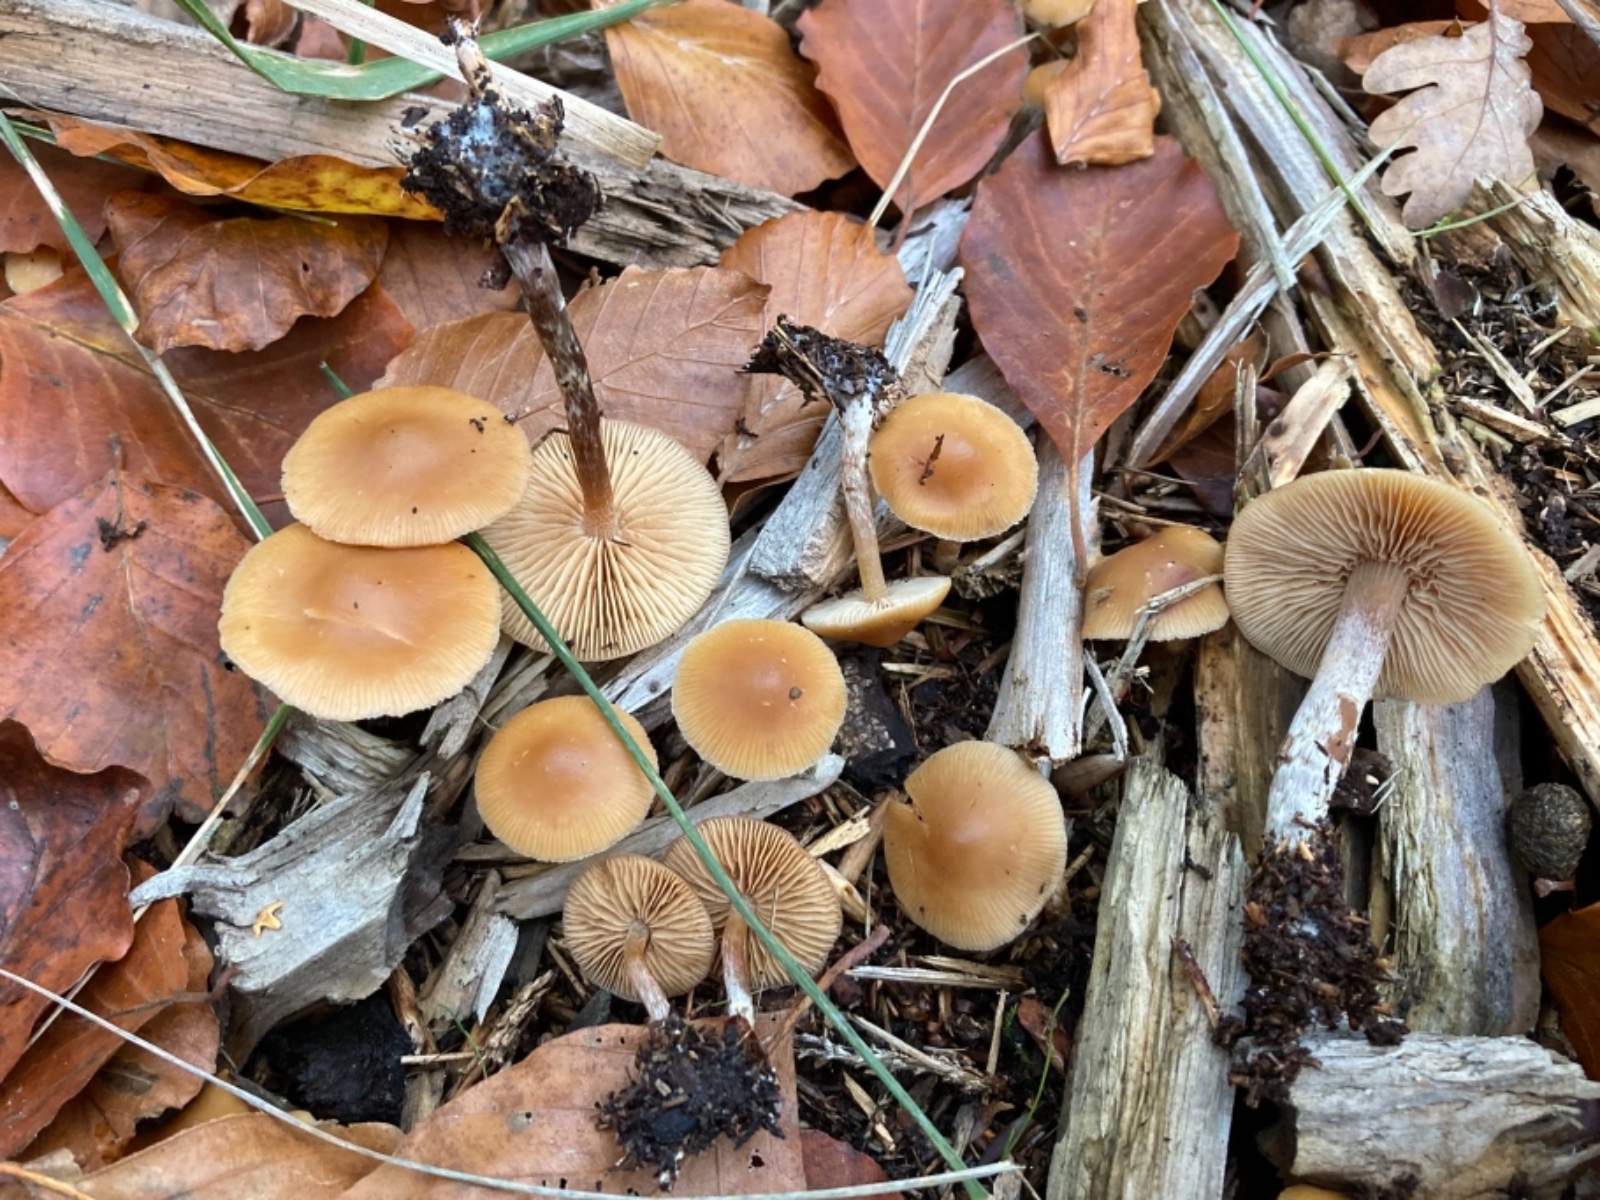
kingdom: Fungi
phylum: Basidiomycota
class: Agaricomycetes
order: Agaricales
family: Hymenogastraceae
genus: Galerina
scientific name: Galerina sideroides
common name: træflis-hjelmhat
